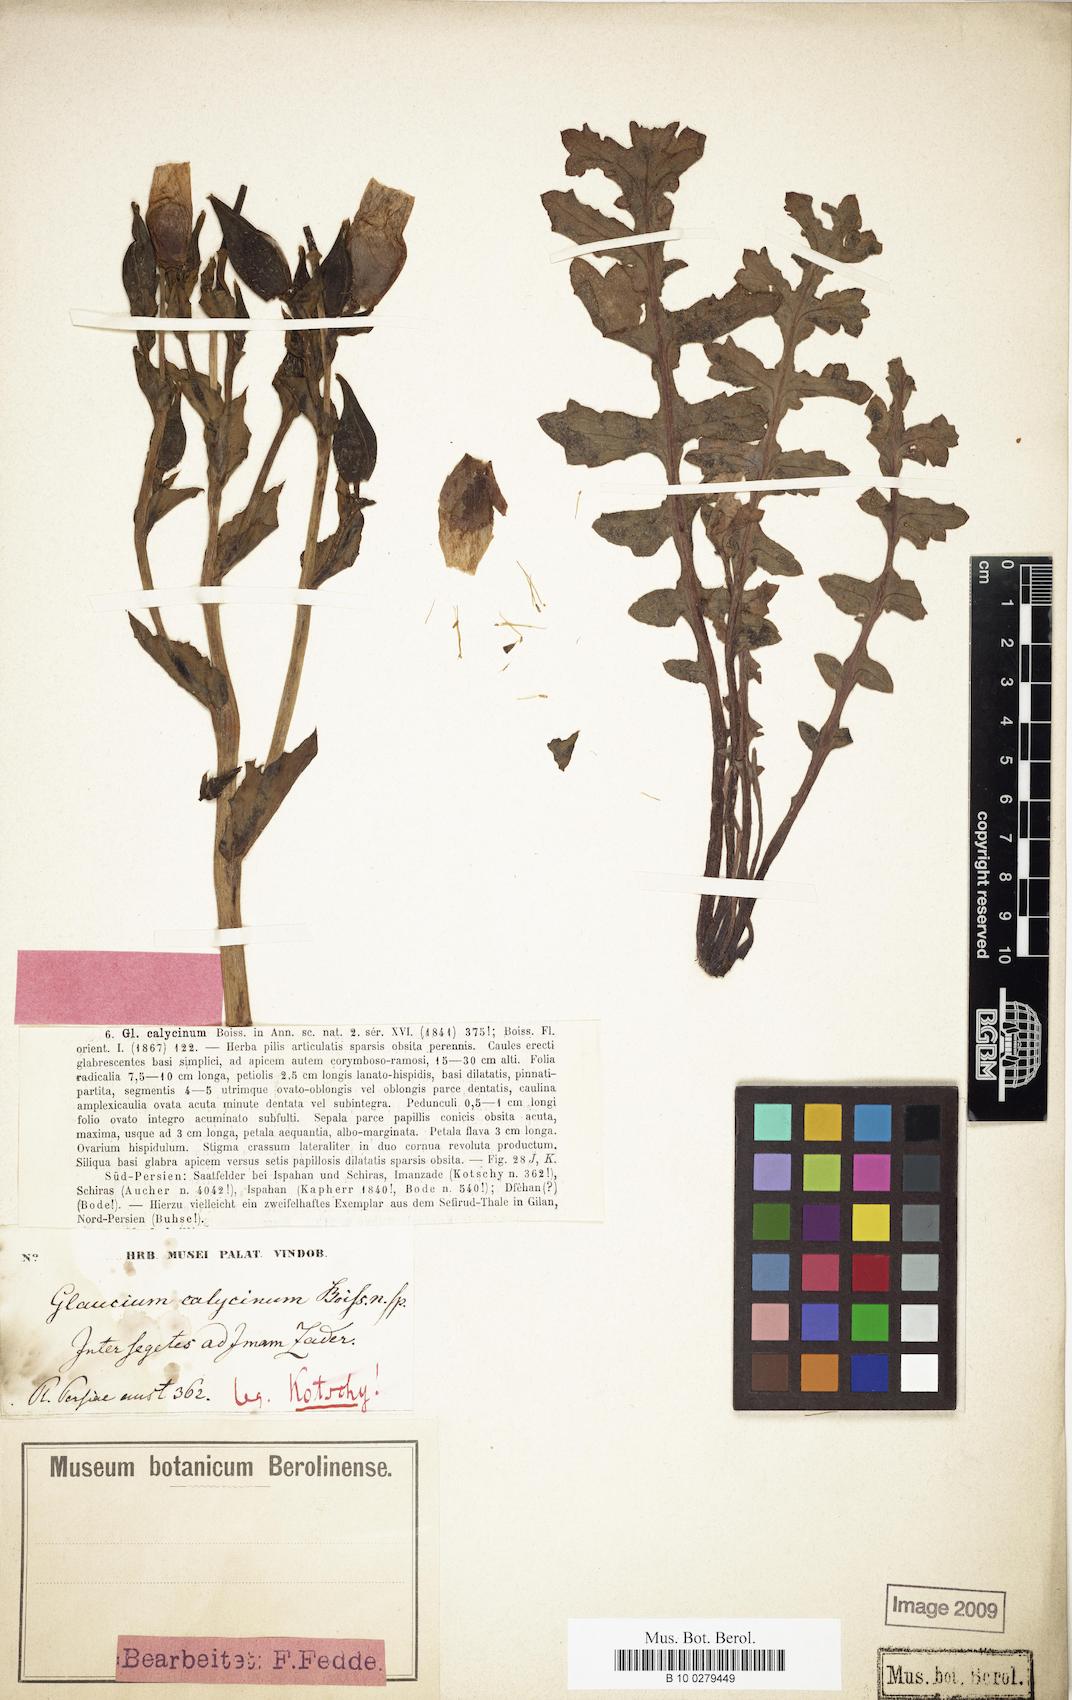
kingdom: Plantae
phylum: Tracheophyta
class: Magnoliopsida
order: Ranunculales
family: Papaveraceae
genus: Glaucium
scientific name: Glaucium calycinum
